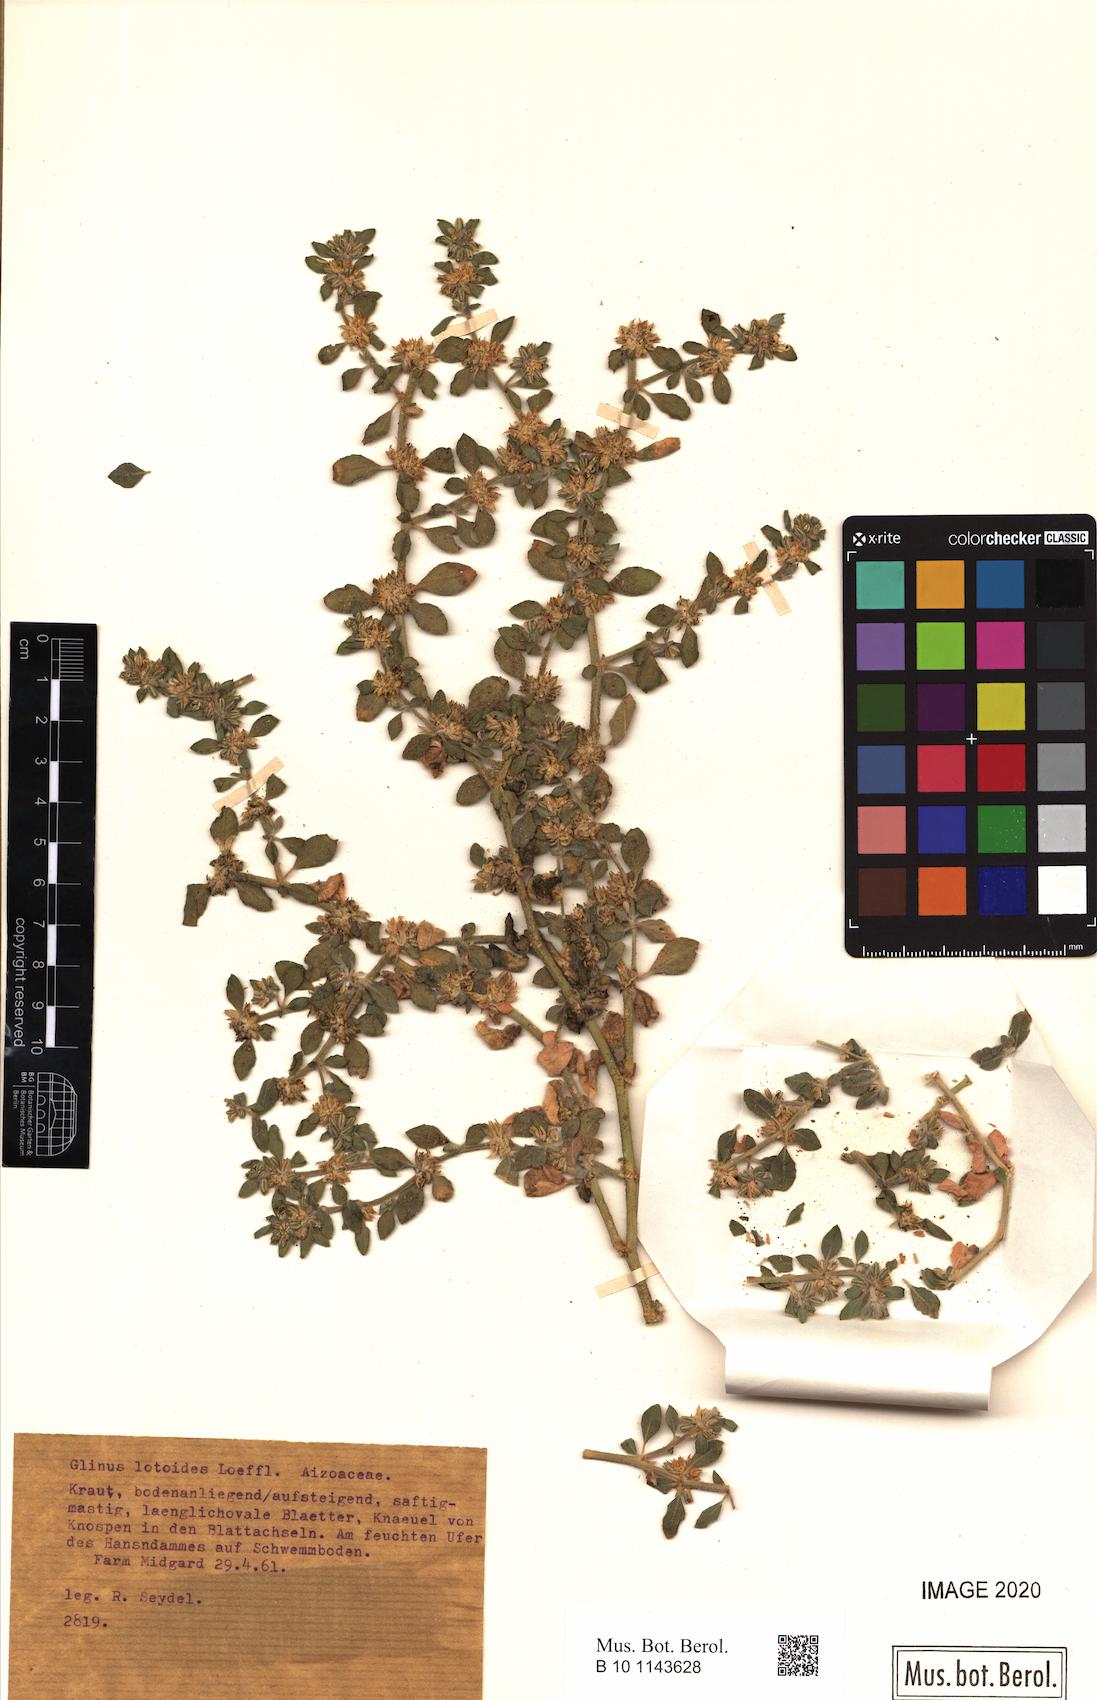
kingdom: Plantae
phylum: Tracheophyta
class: Magnoliopsida
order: Caryophyllales
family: Molluginaceae
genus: Glinus
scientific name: Glinus hirtus
